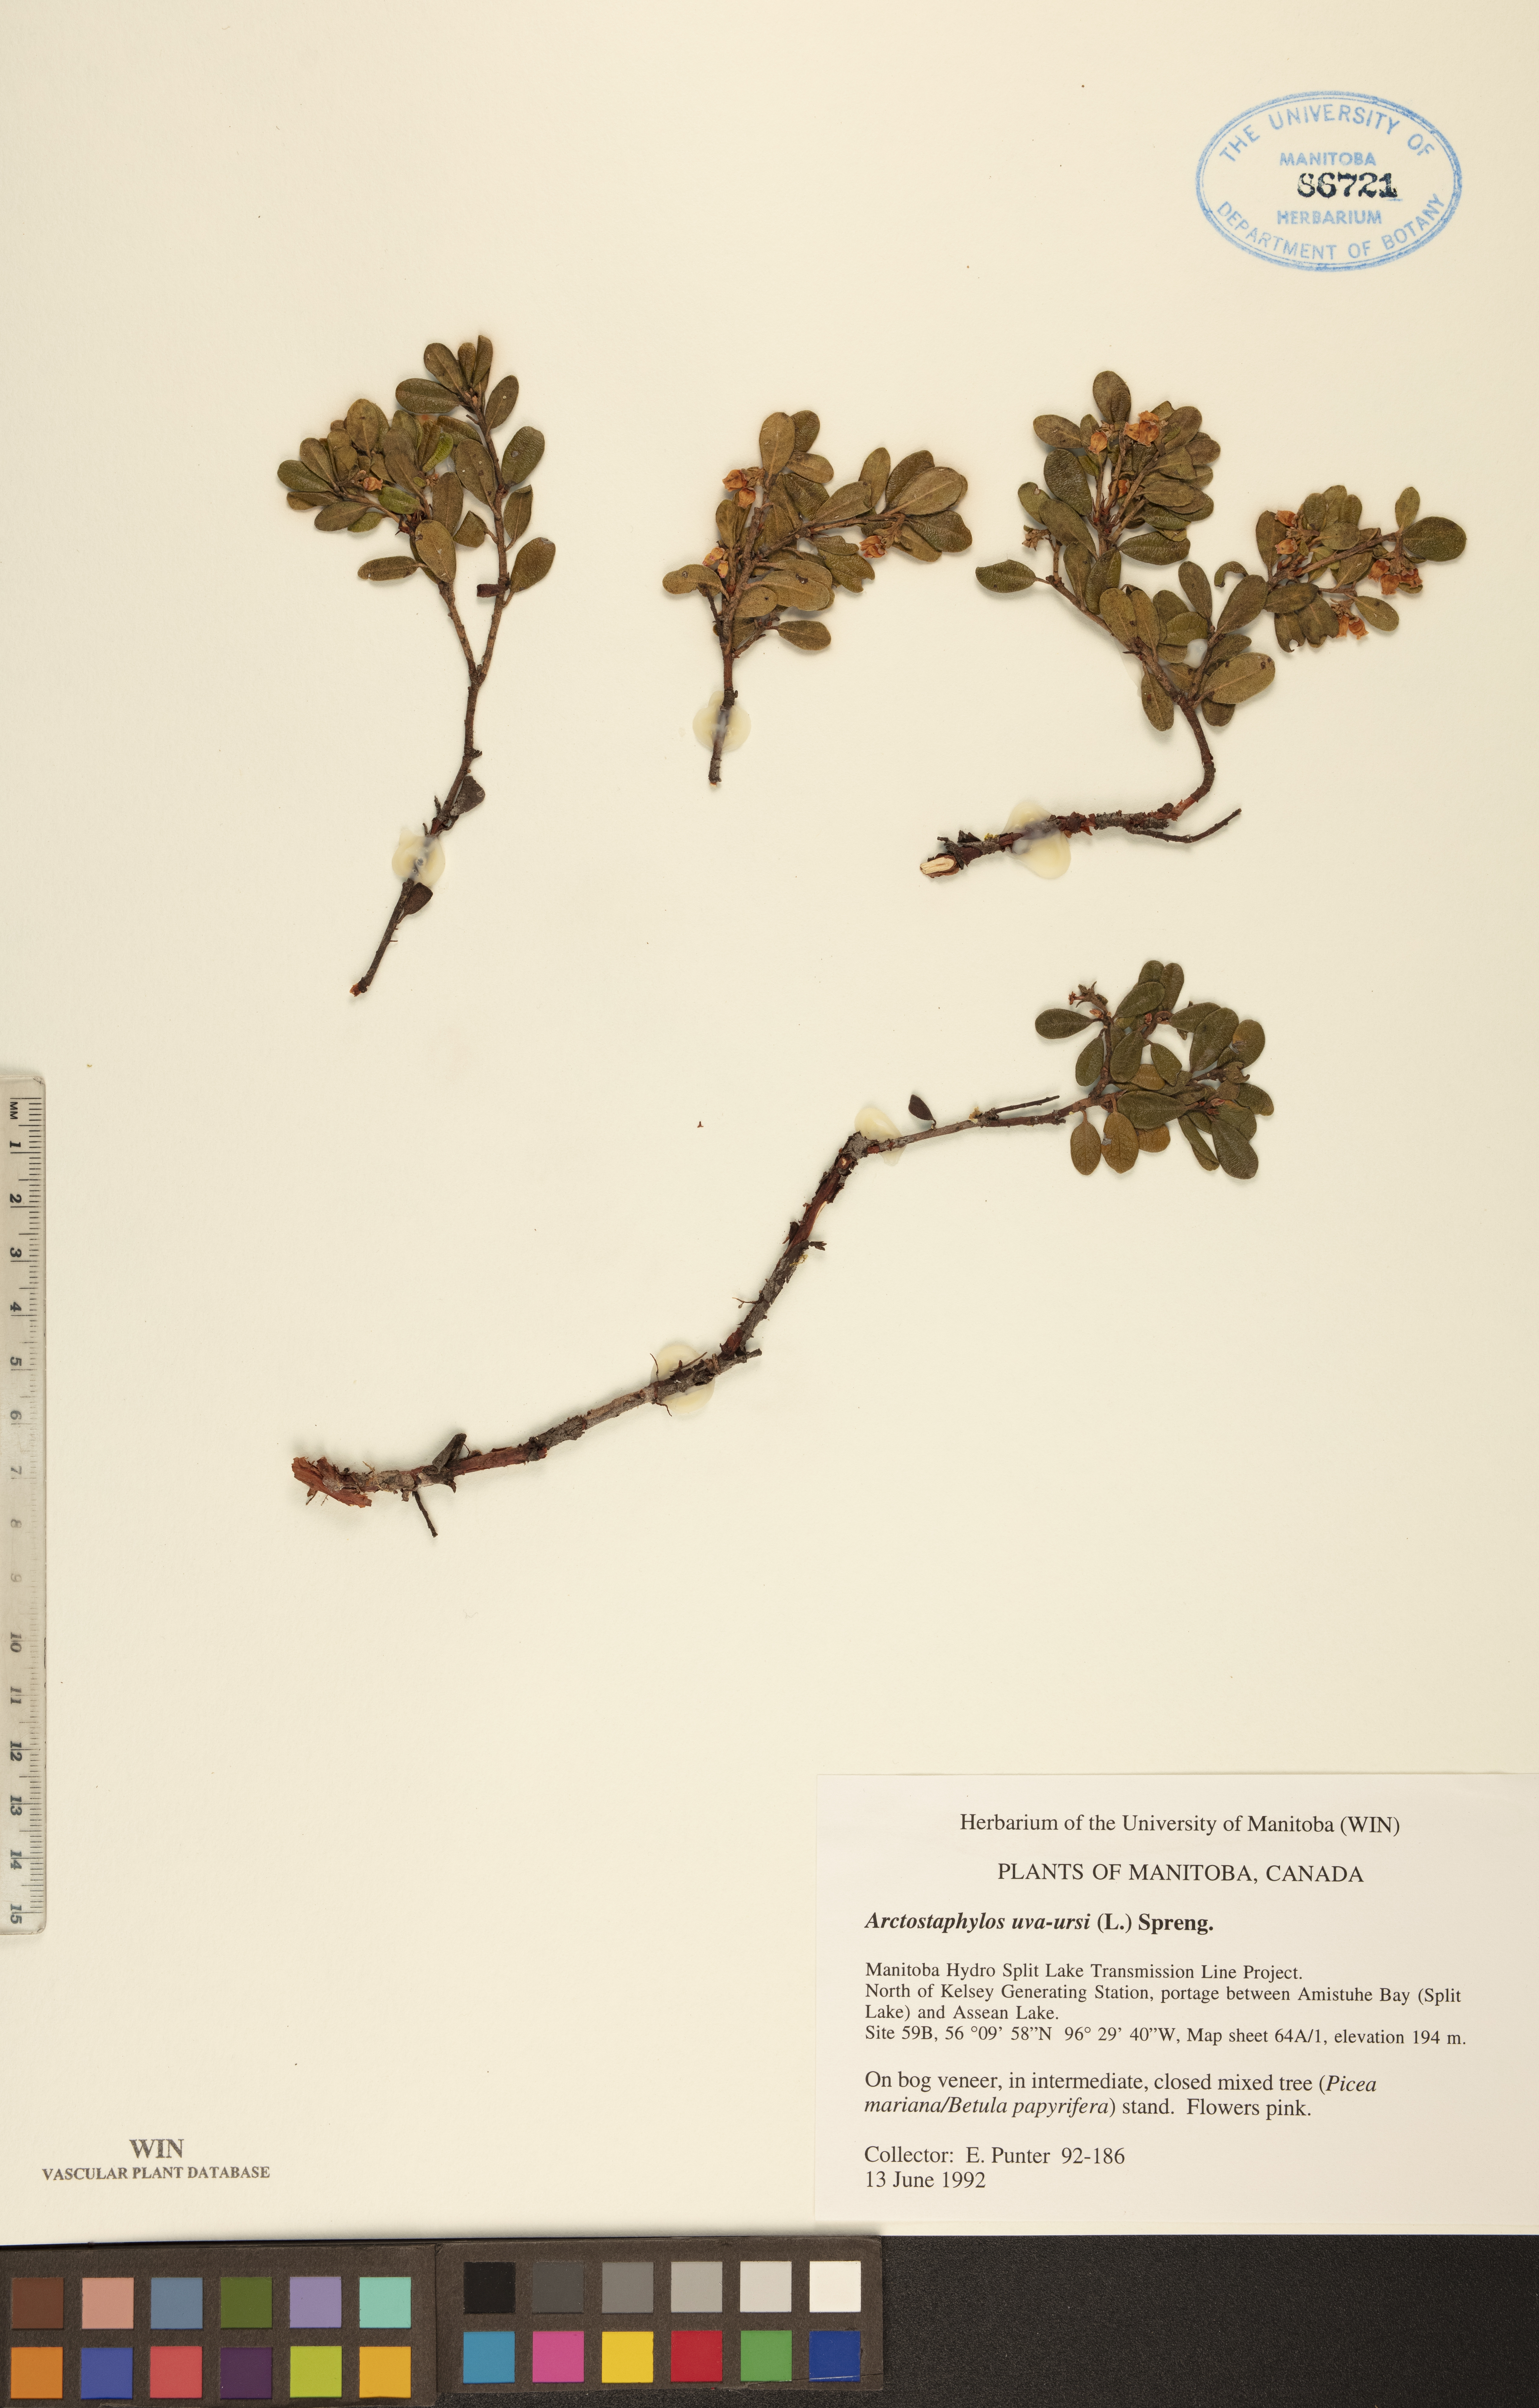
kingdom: Plantae
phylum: Tracheophyta
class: Magnoliopsida
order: Ericales
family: Ericaceae
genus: Arctostaphylos
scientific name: Arctostaphylos uva-ursi
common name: Bearberry
